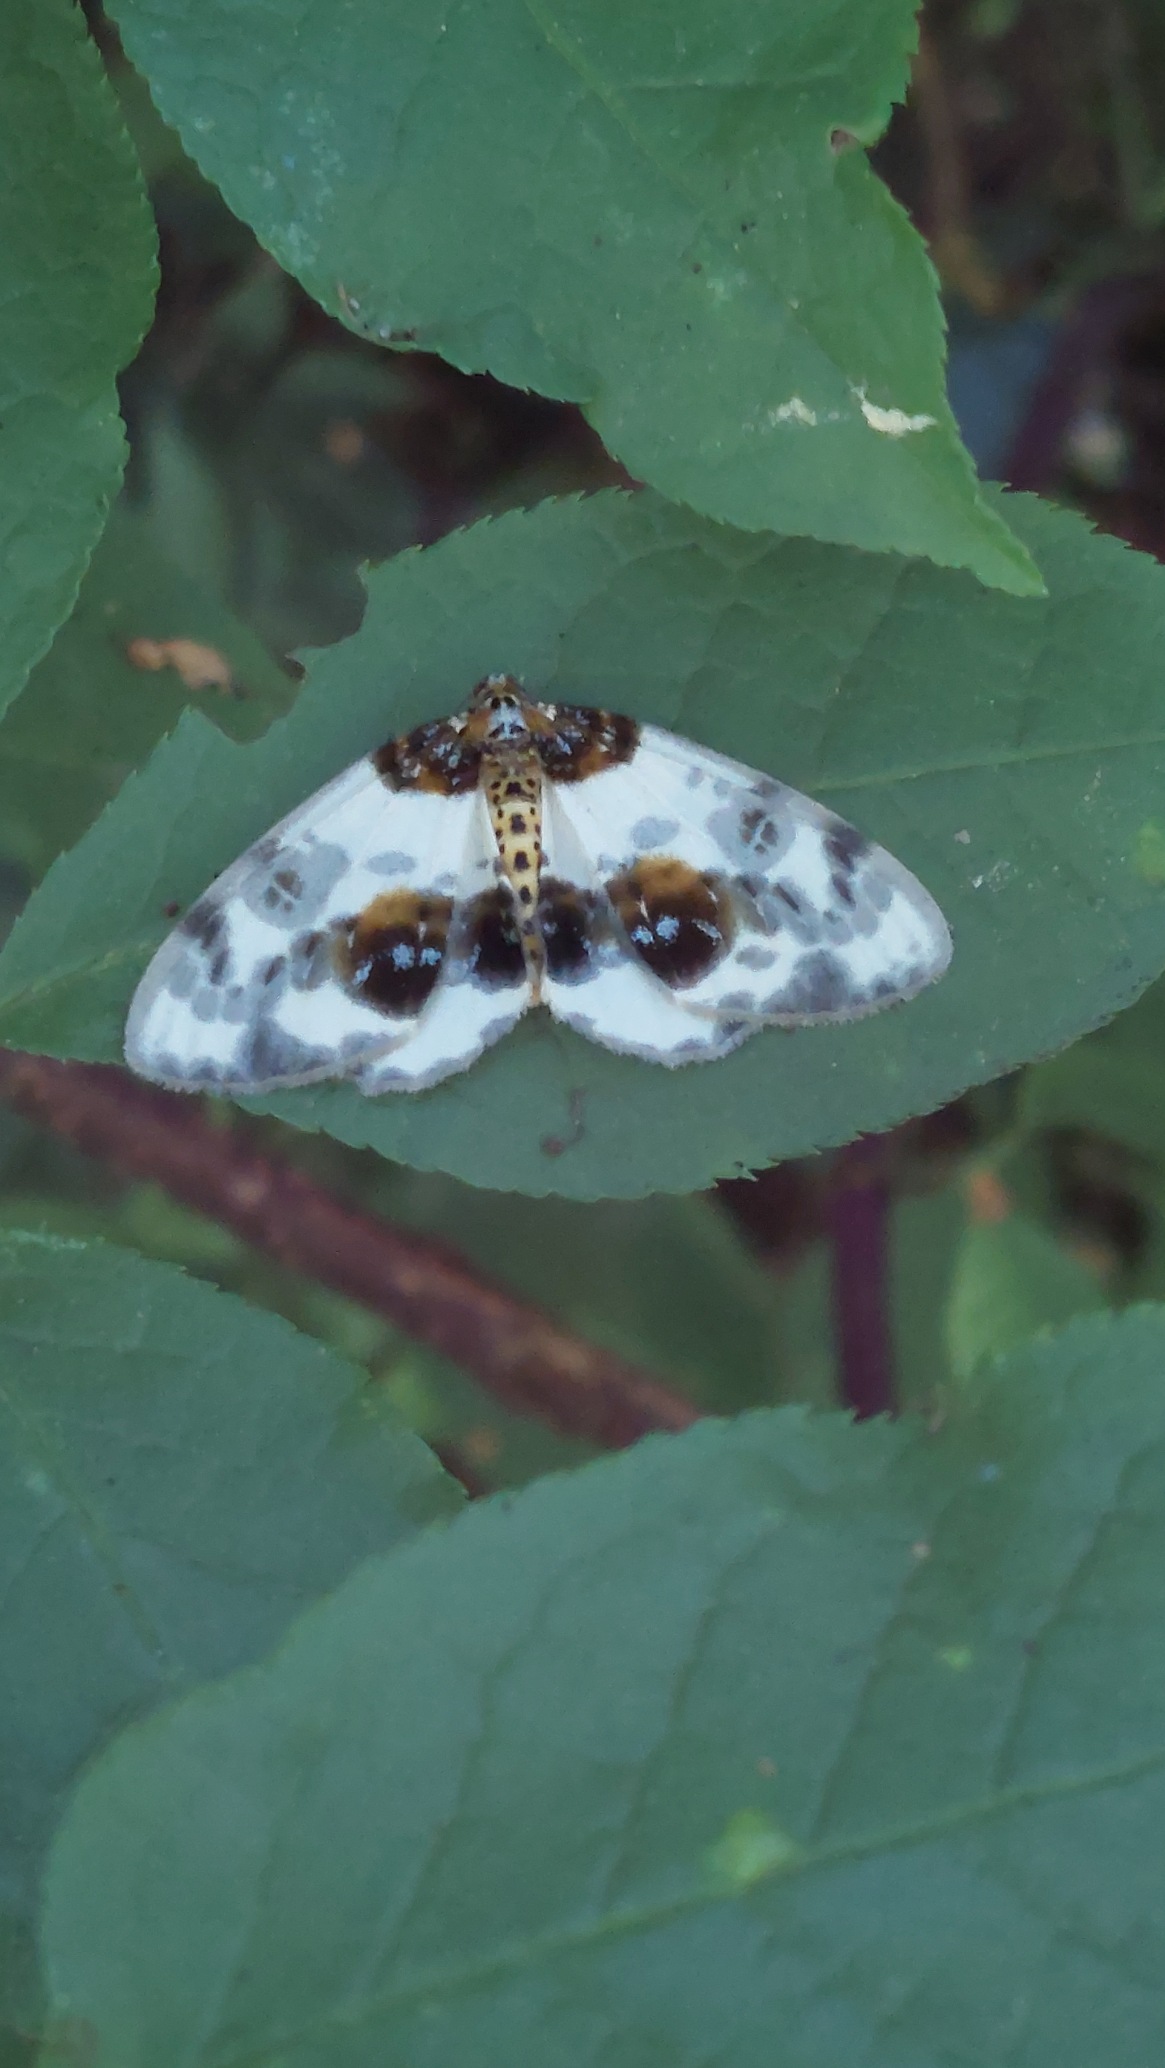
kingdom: Animalia
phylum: Arthropoda
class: Insecta
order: Lepidoptera
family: Geometridae
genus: Abraxas
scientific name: Abraxas sylvata
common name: Elmemåler
